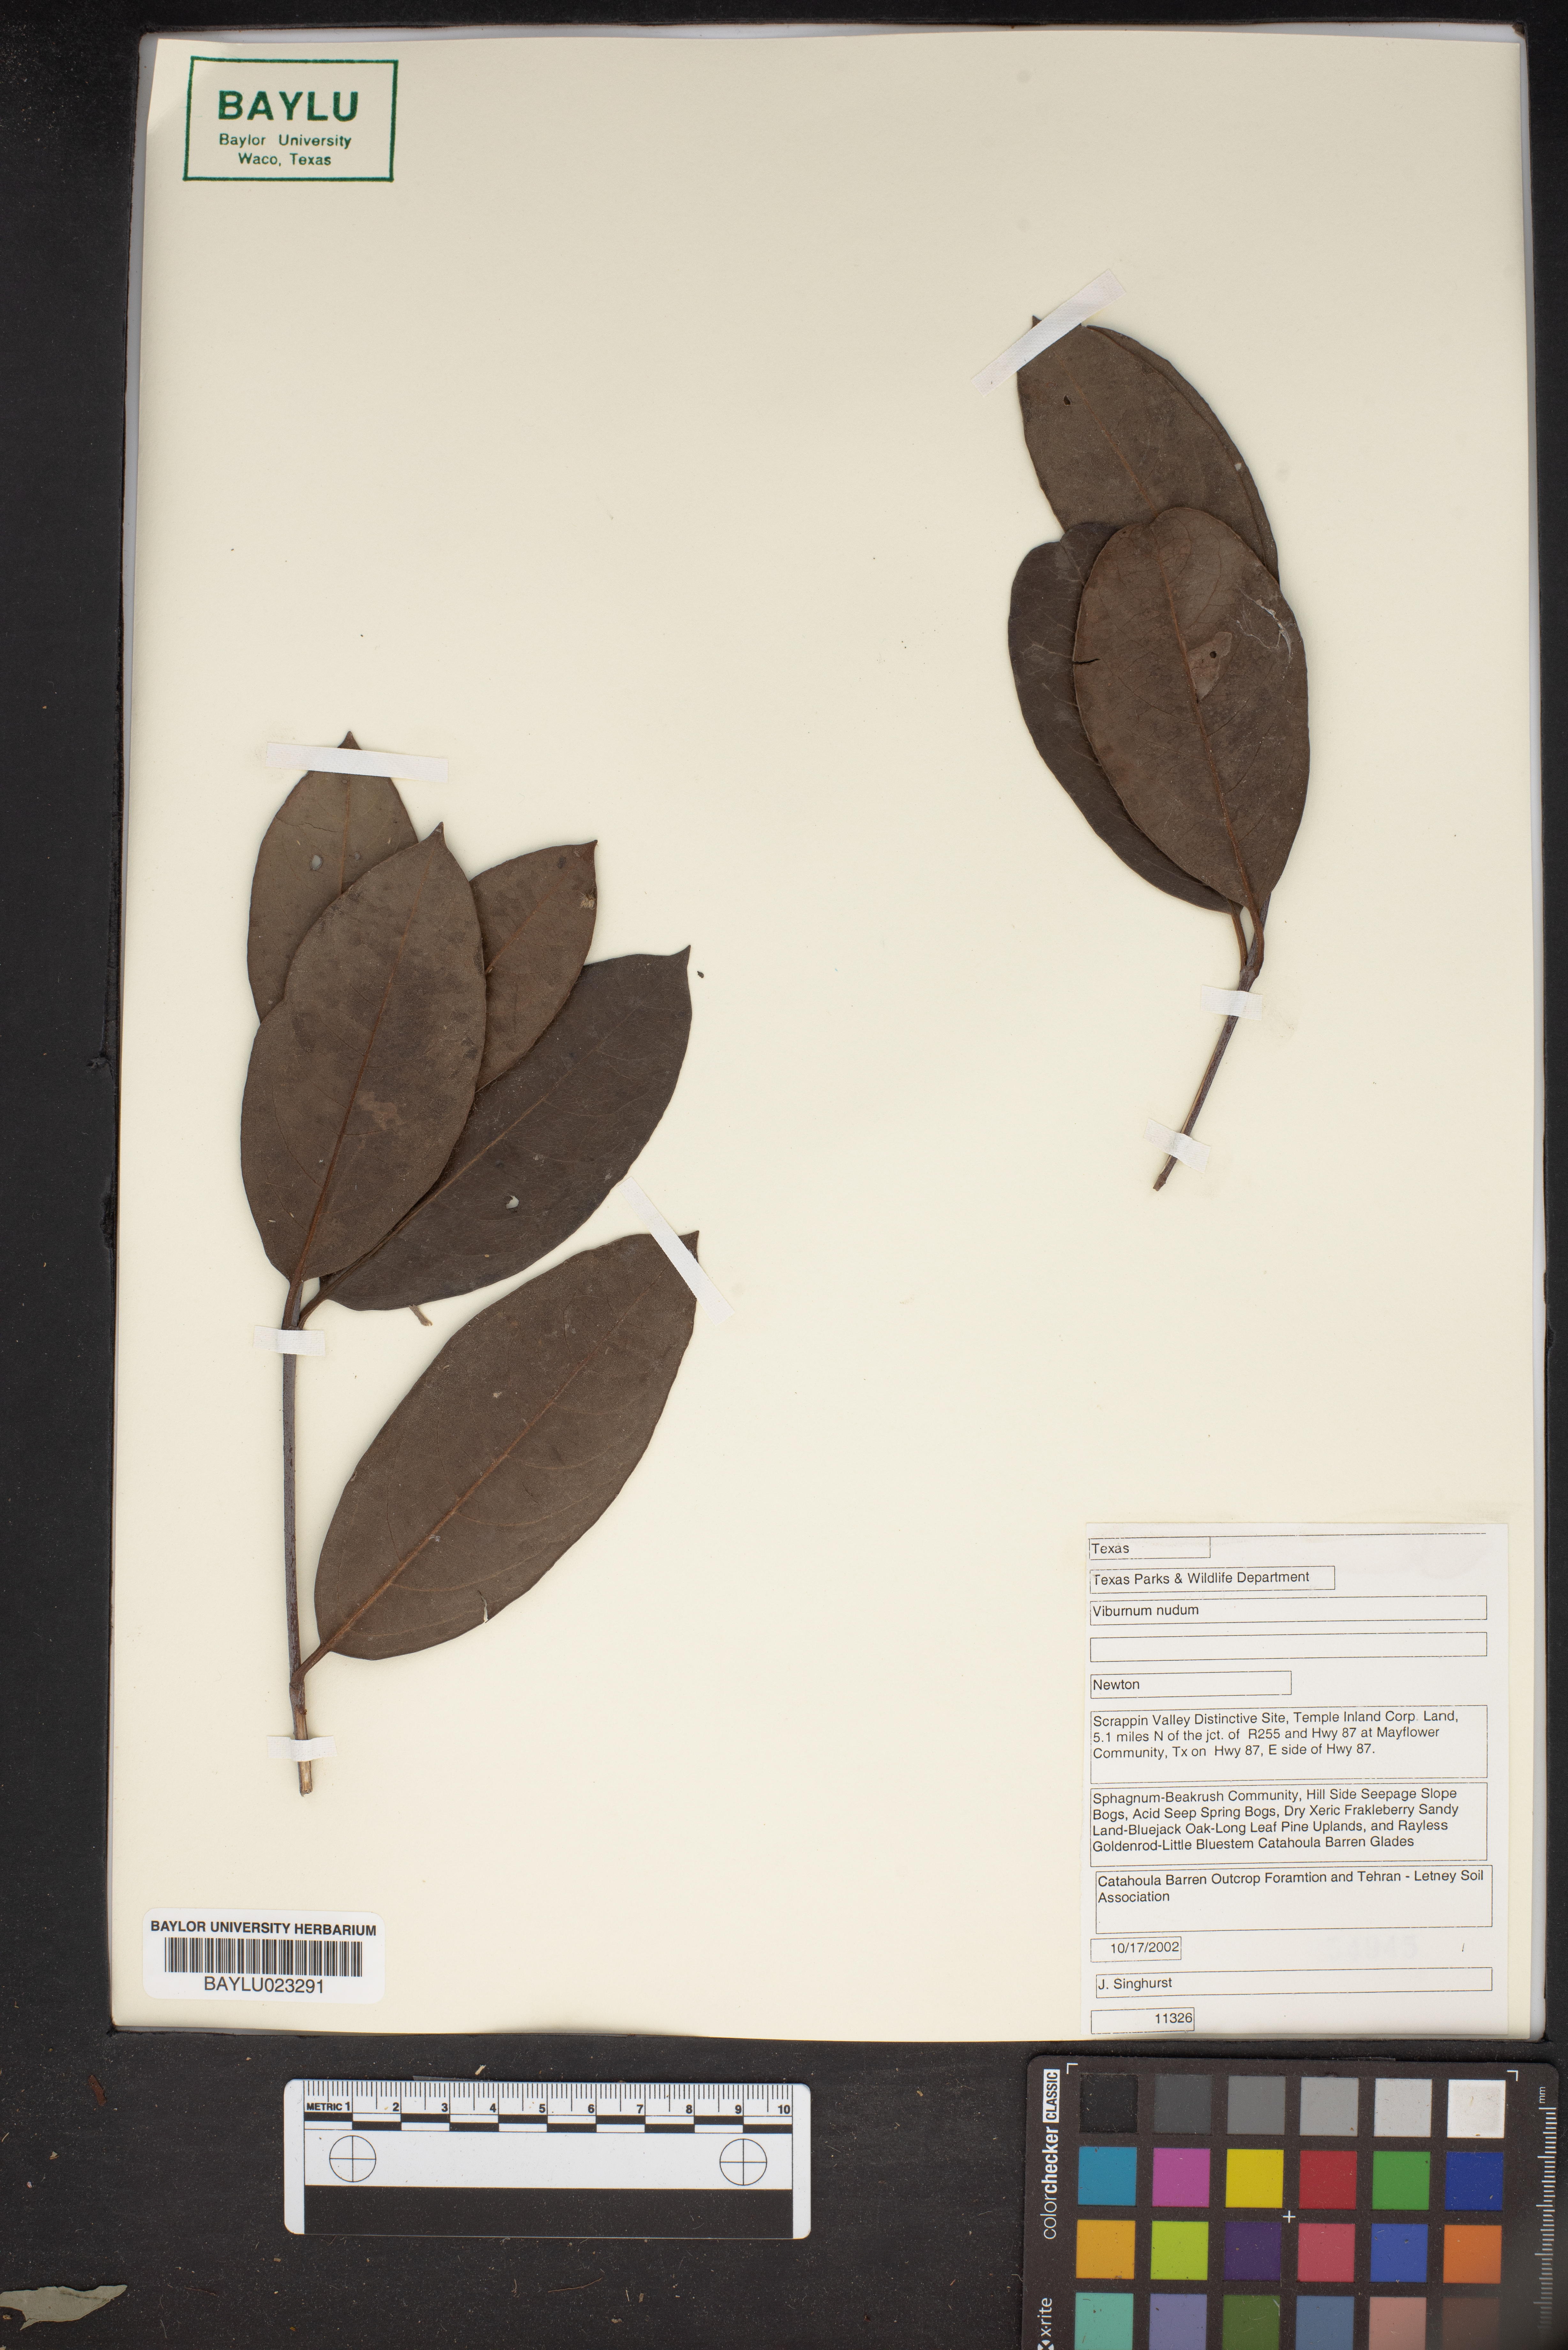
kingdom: Plantae
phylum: Tracheophyta
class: Magnoliopsida
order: Dipsacales
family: Viburnaceae
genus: Viburnum
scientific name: Viburnum nudum
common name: Possum haw
